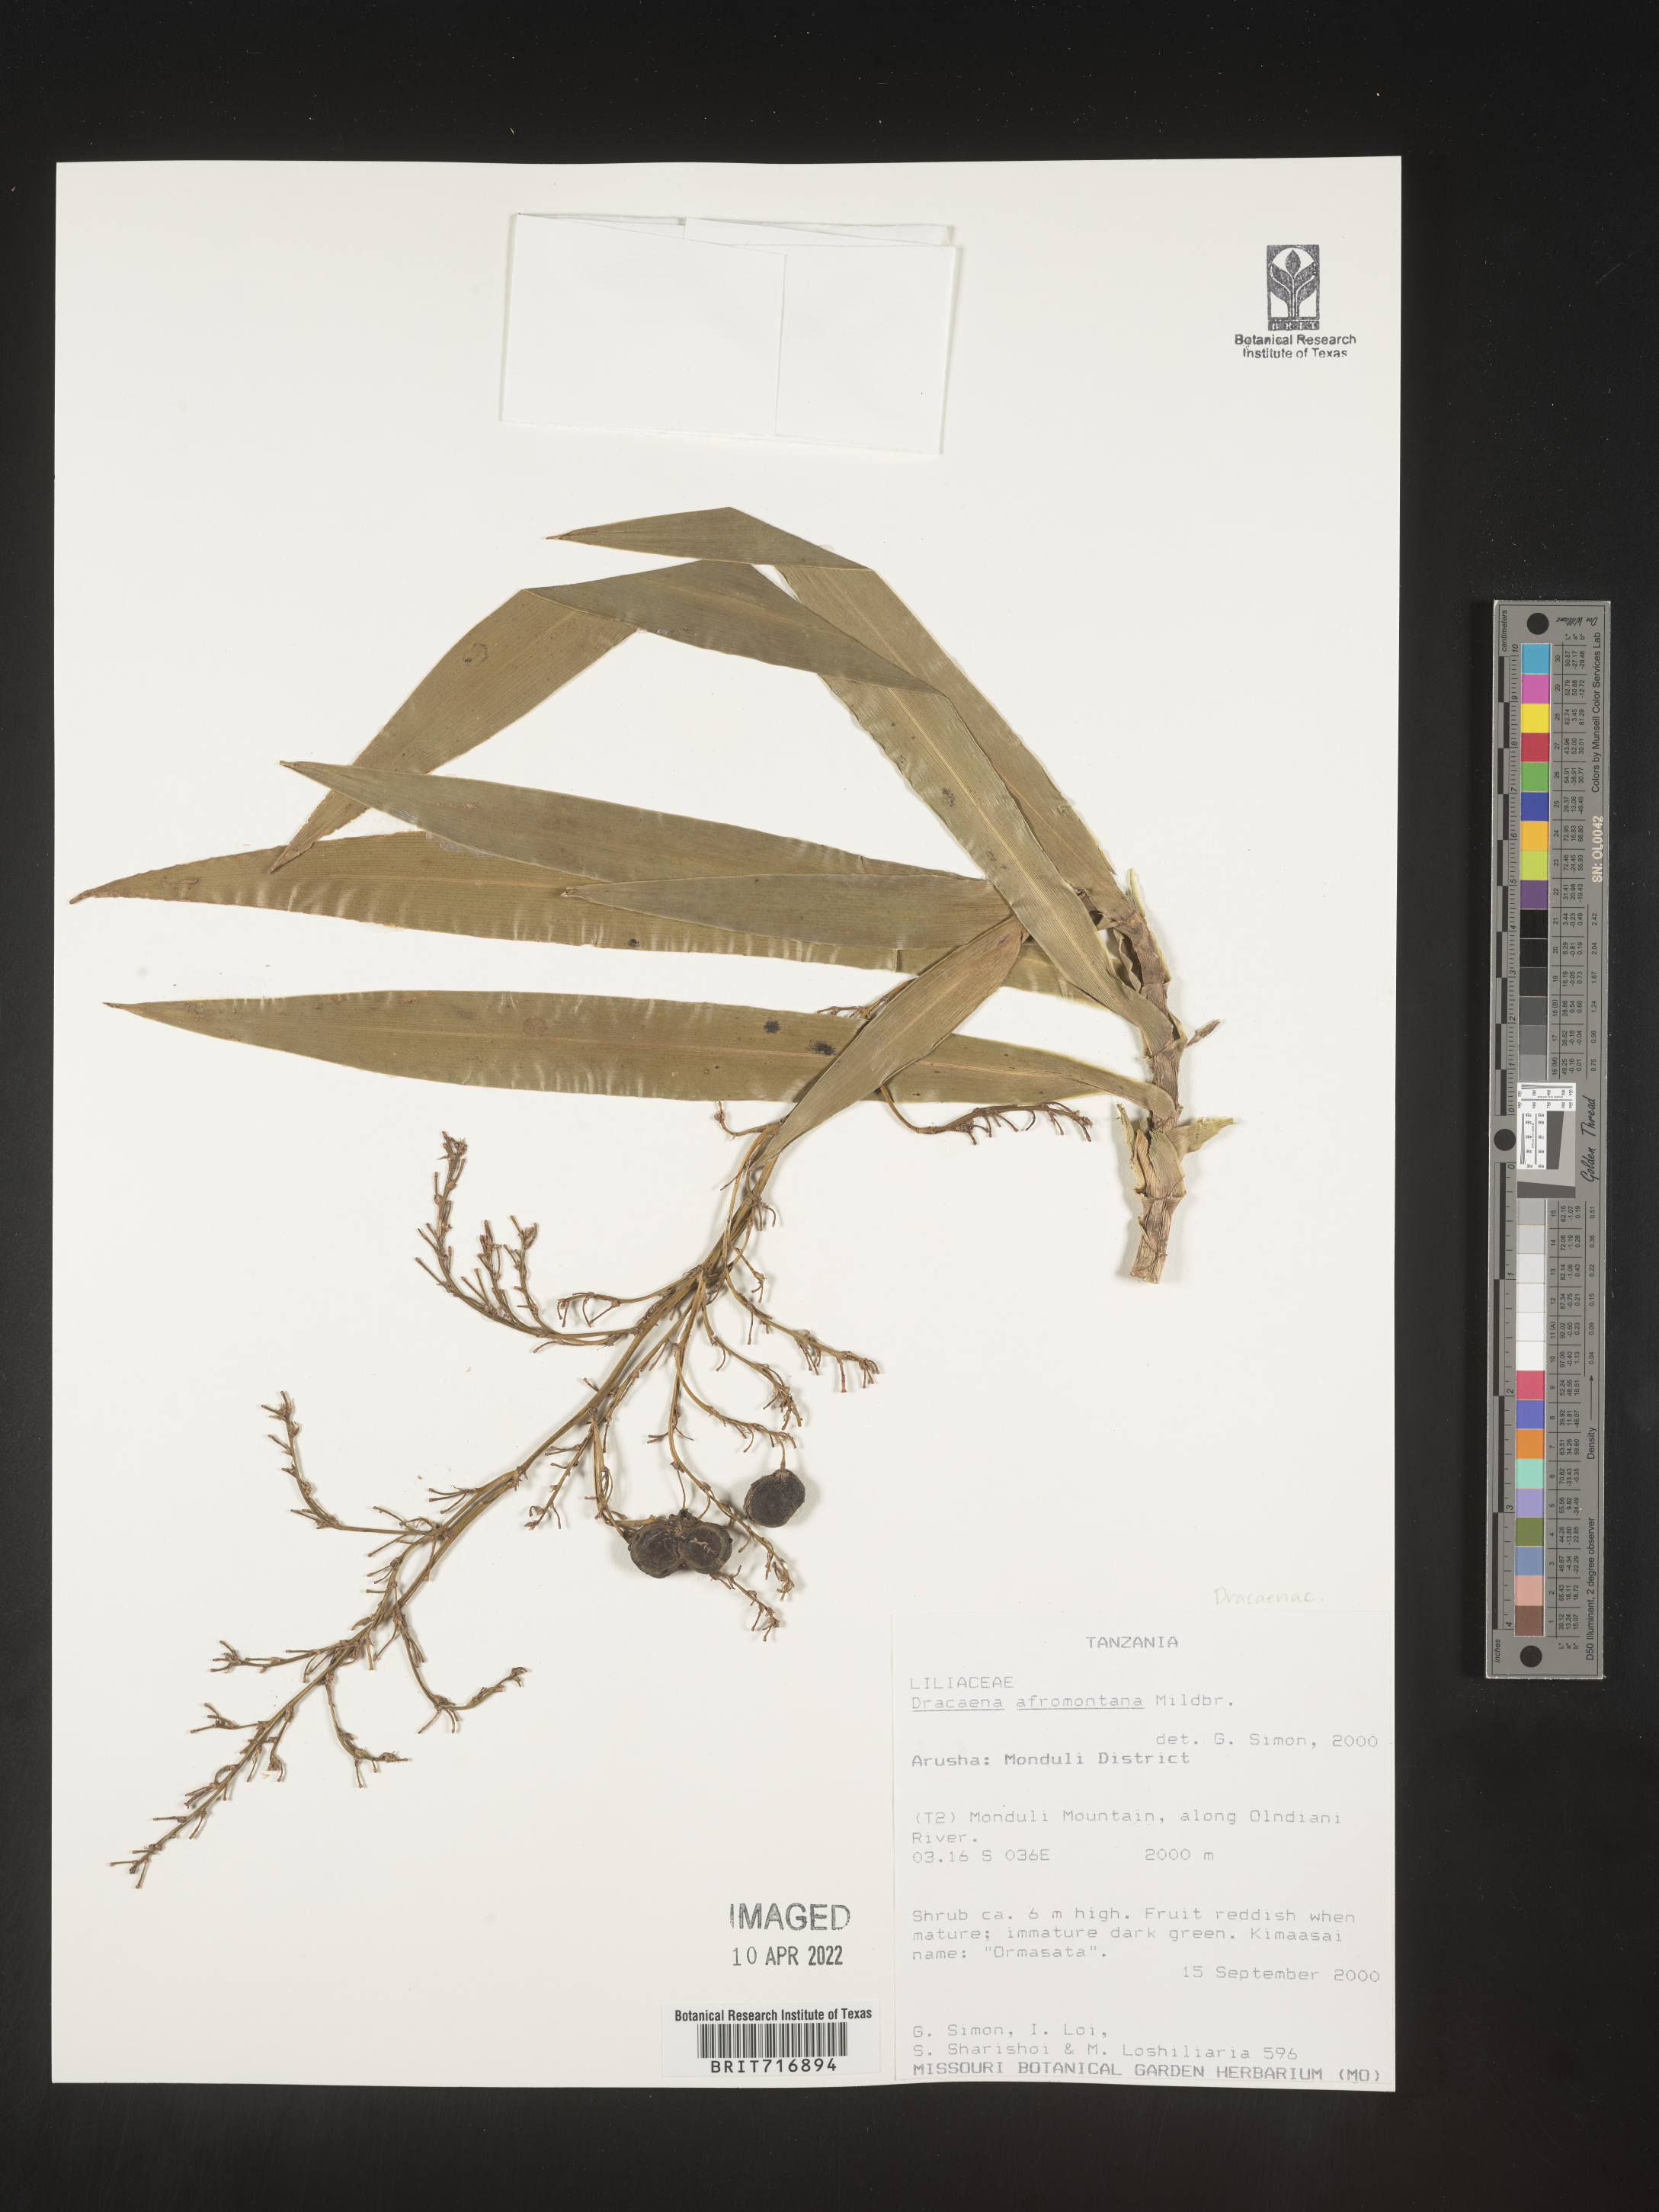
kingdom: Plantae
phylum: Tracheophyta
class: Liliopsida
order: Asparagales
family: Asparagaceae
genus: Dracaena
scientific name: Dracaena
